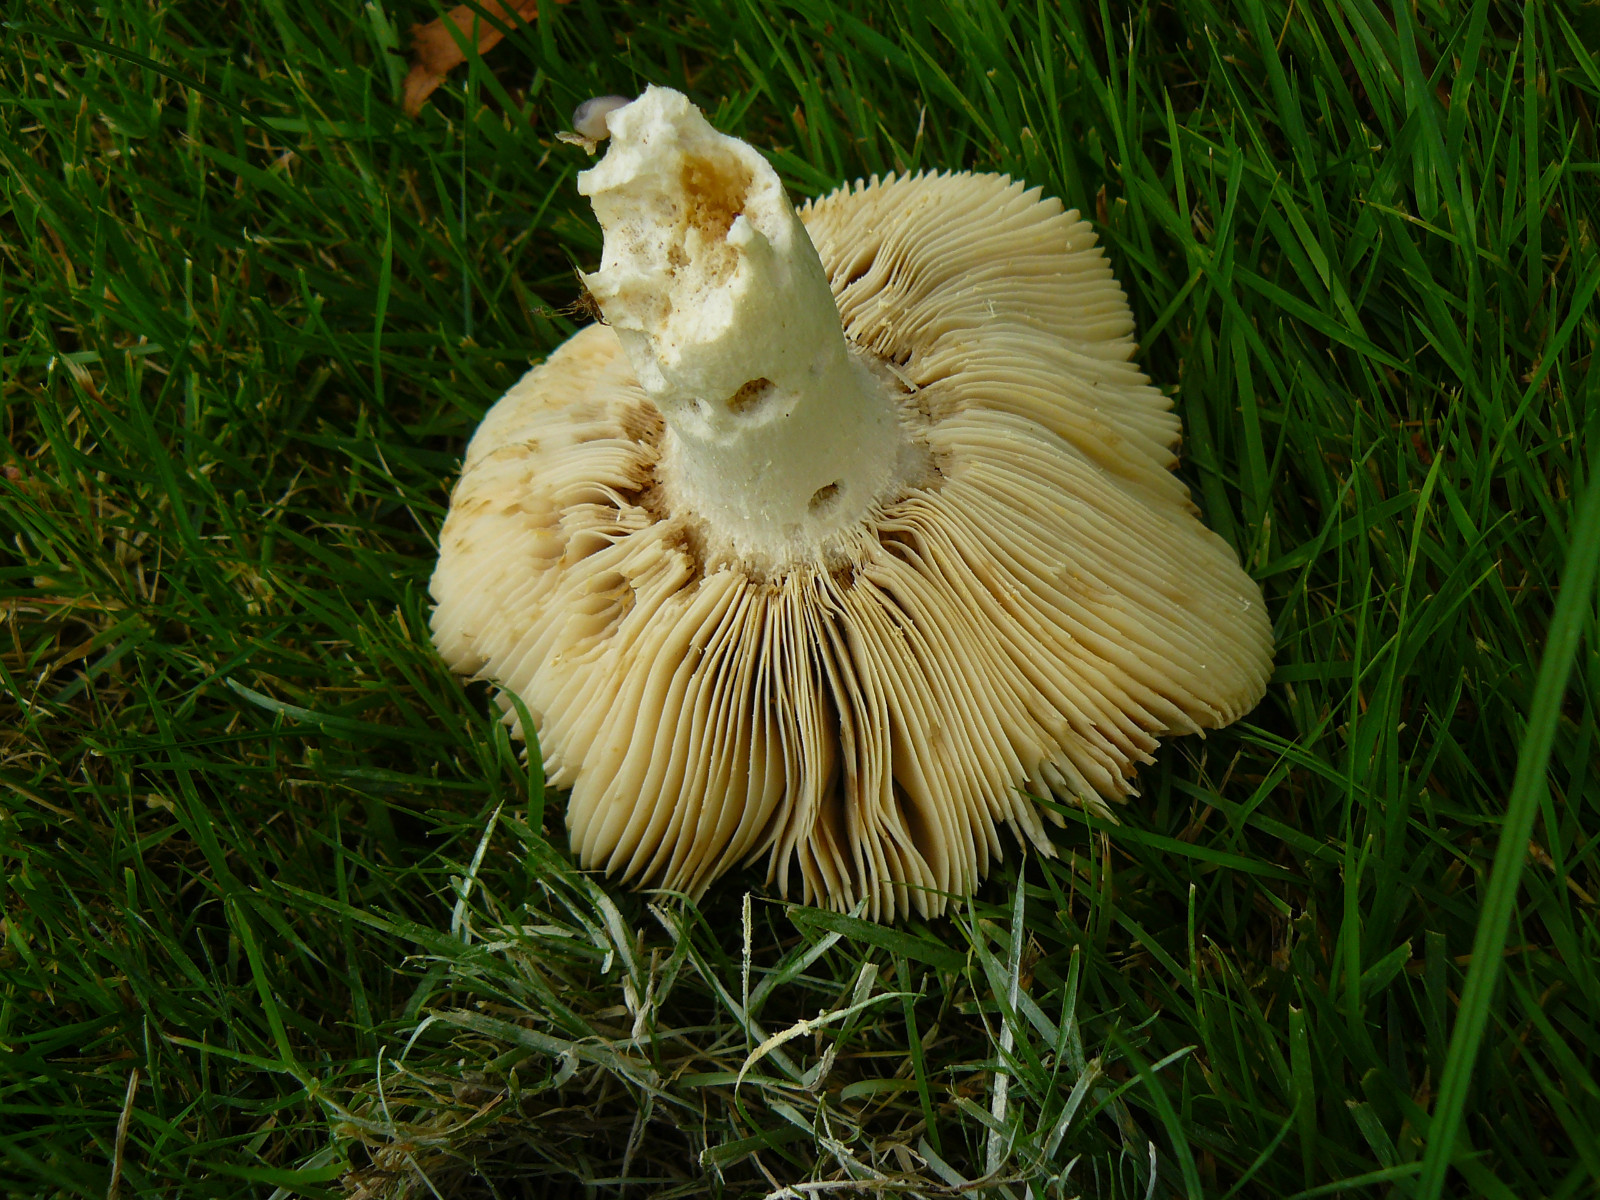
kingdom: Fungi
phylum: Basidiomycota
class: Agaricomycetes
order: Russulales
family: Russulaceae
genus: Russula
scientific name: Russula
